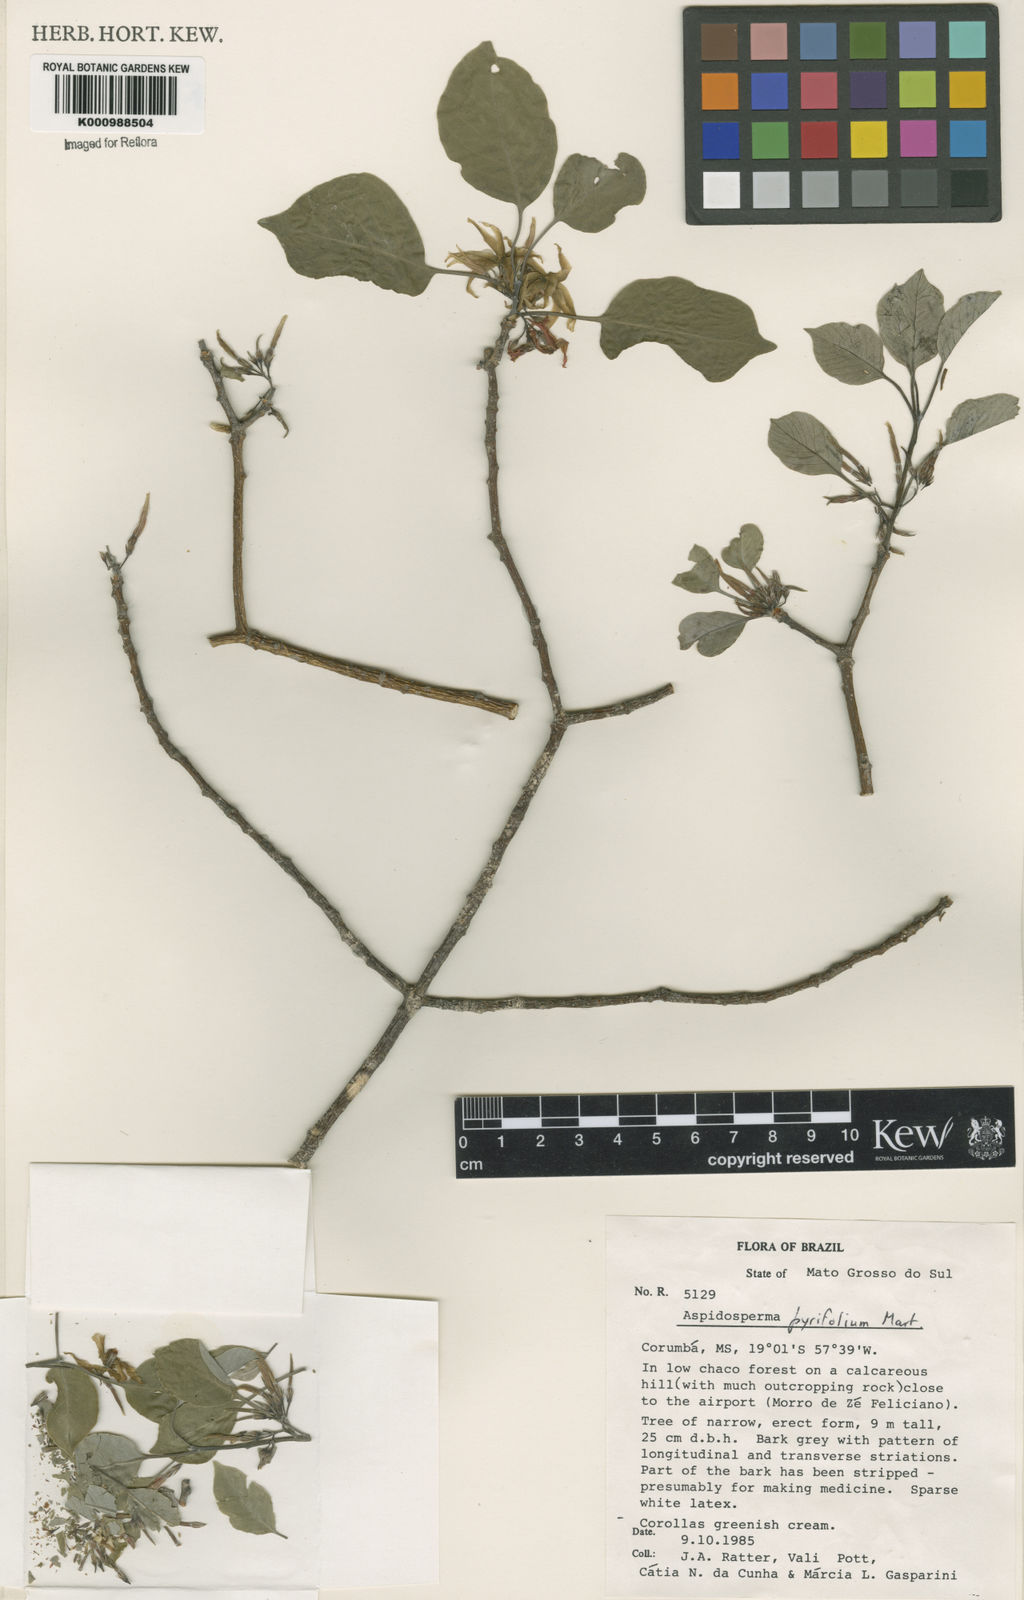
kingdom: Plantae
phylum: Tracheophyta
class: Magnoliopsida
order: Gentianales
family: Apocynaceae
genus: Aspidosperma
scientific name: Aspidosperma pyrifolium
